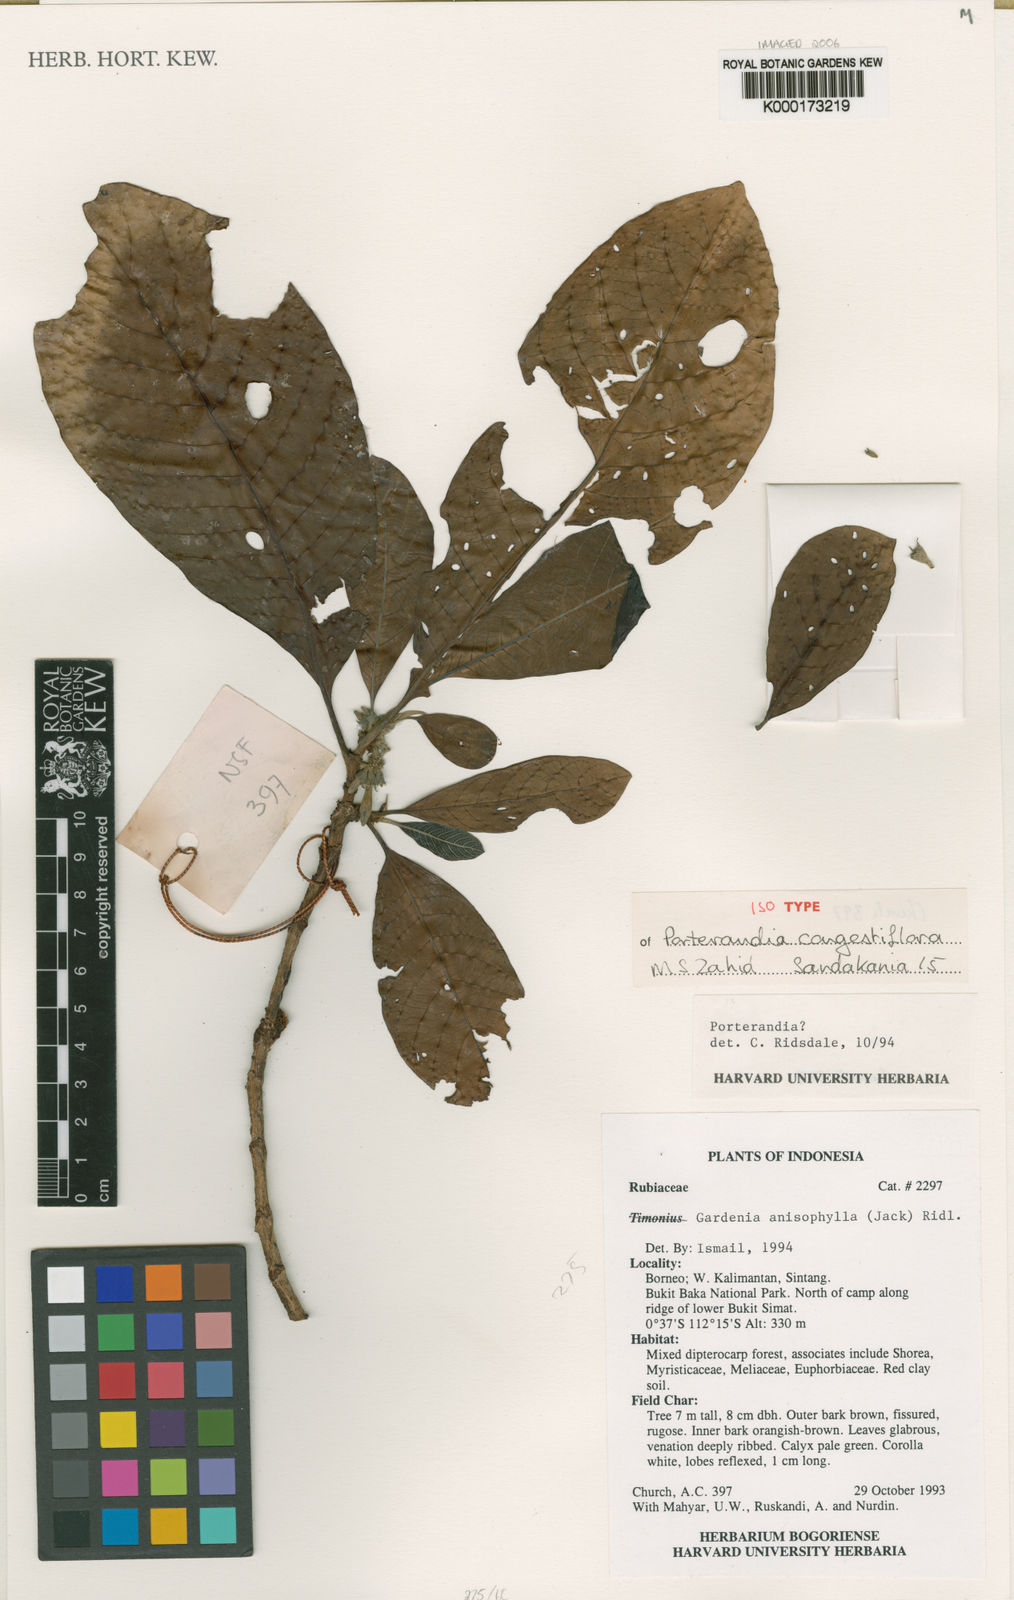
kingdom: Plantae
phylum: Tracheophyta
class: Magnoliopsida
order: Gentianales
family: Rubiaceae
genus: Porterandia
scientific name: Porterandia congestiflora
